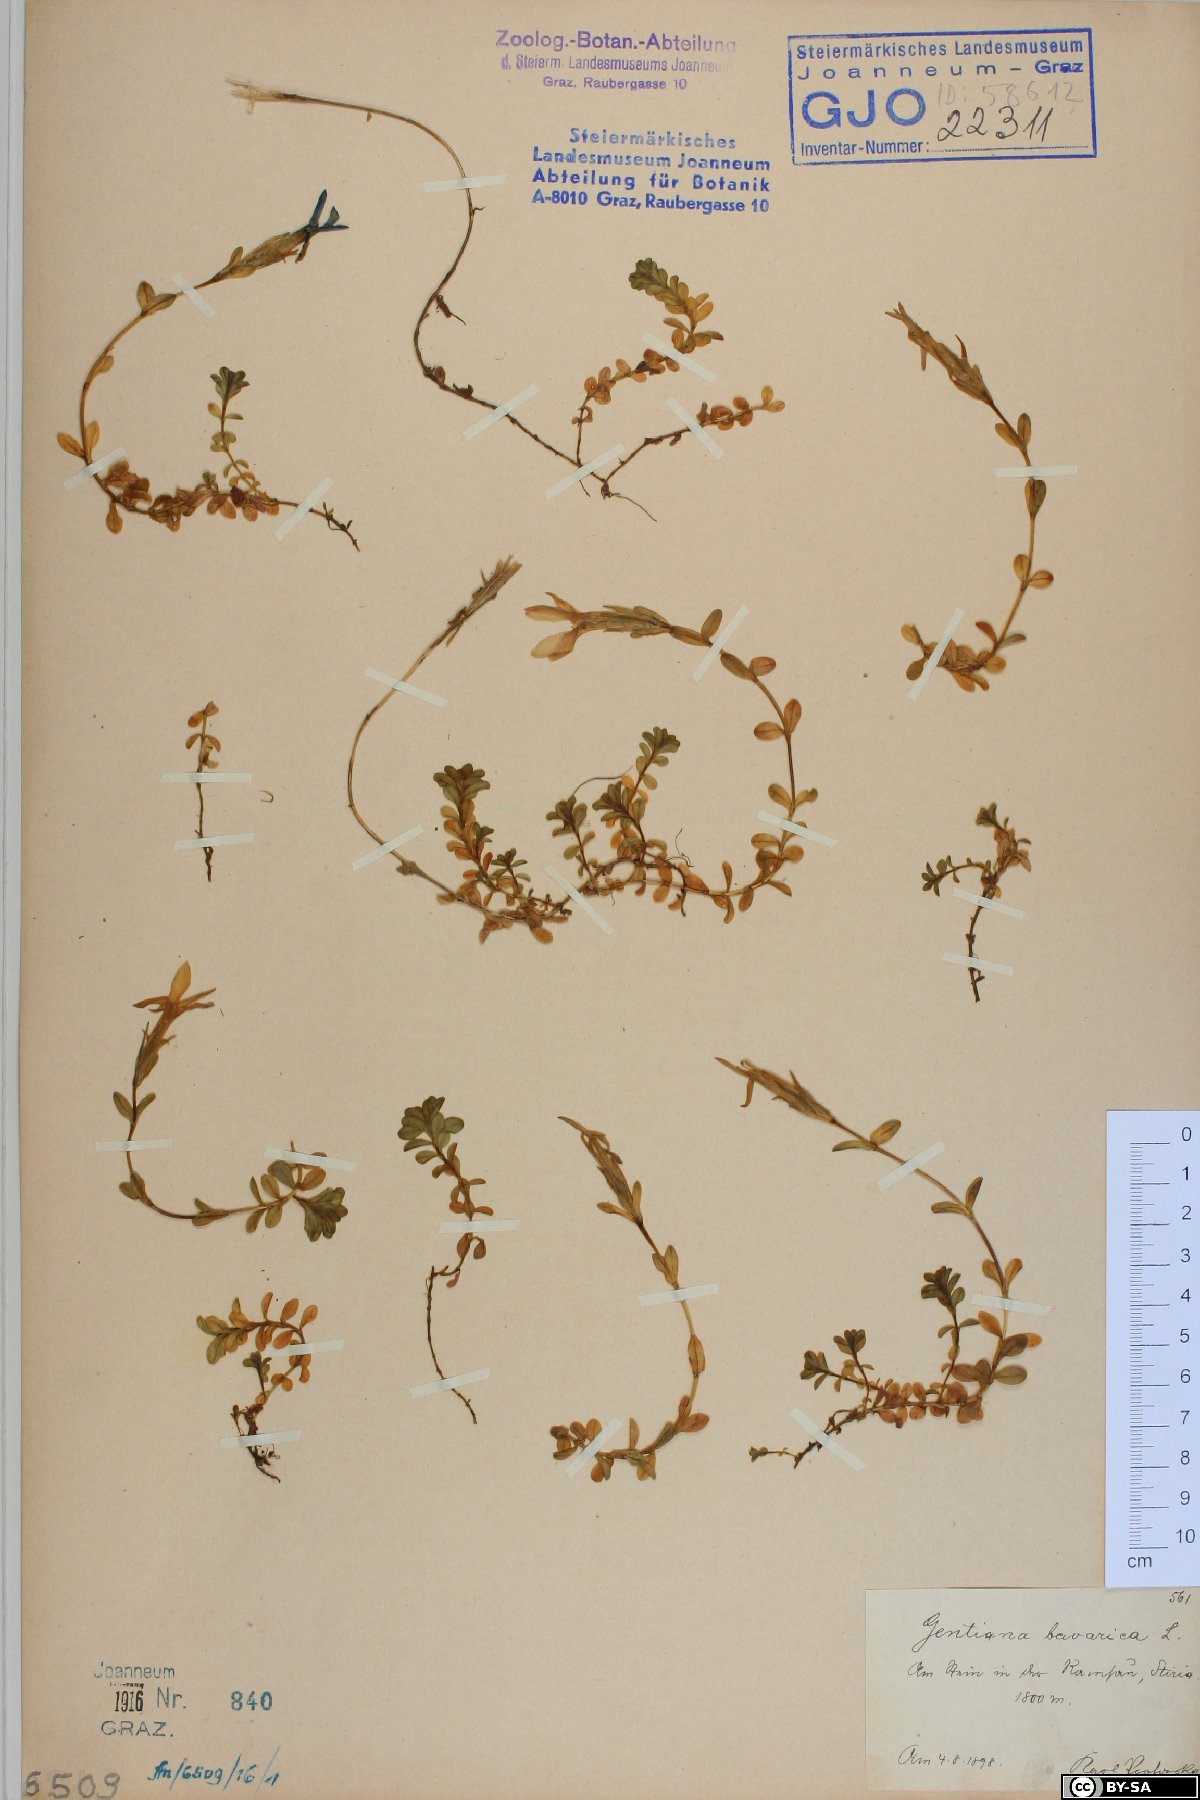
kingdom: Plantae
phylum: Tracheophyta
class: Magnoliopsida
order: Gentianales
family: Gentianaceae
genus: Gentiana
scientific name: Gentiana bavarica
